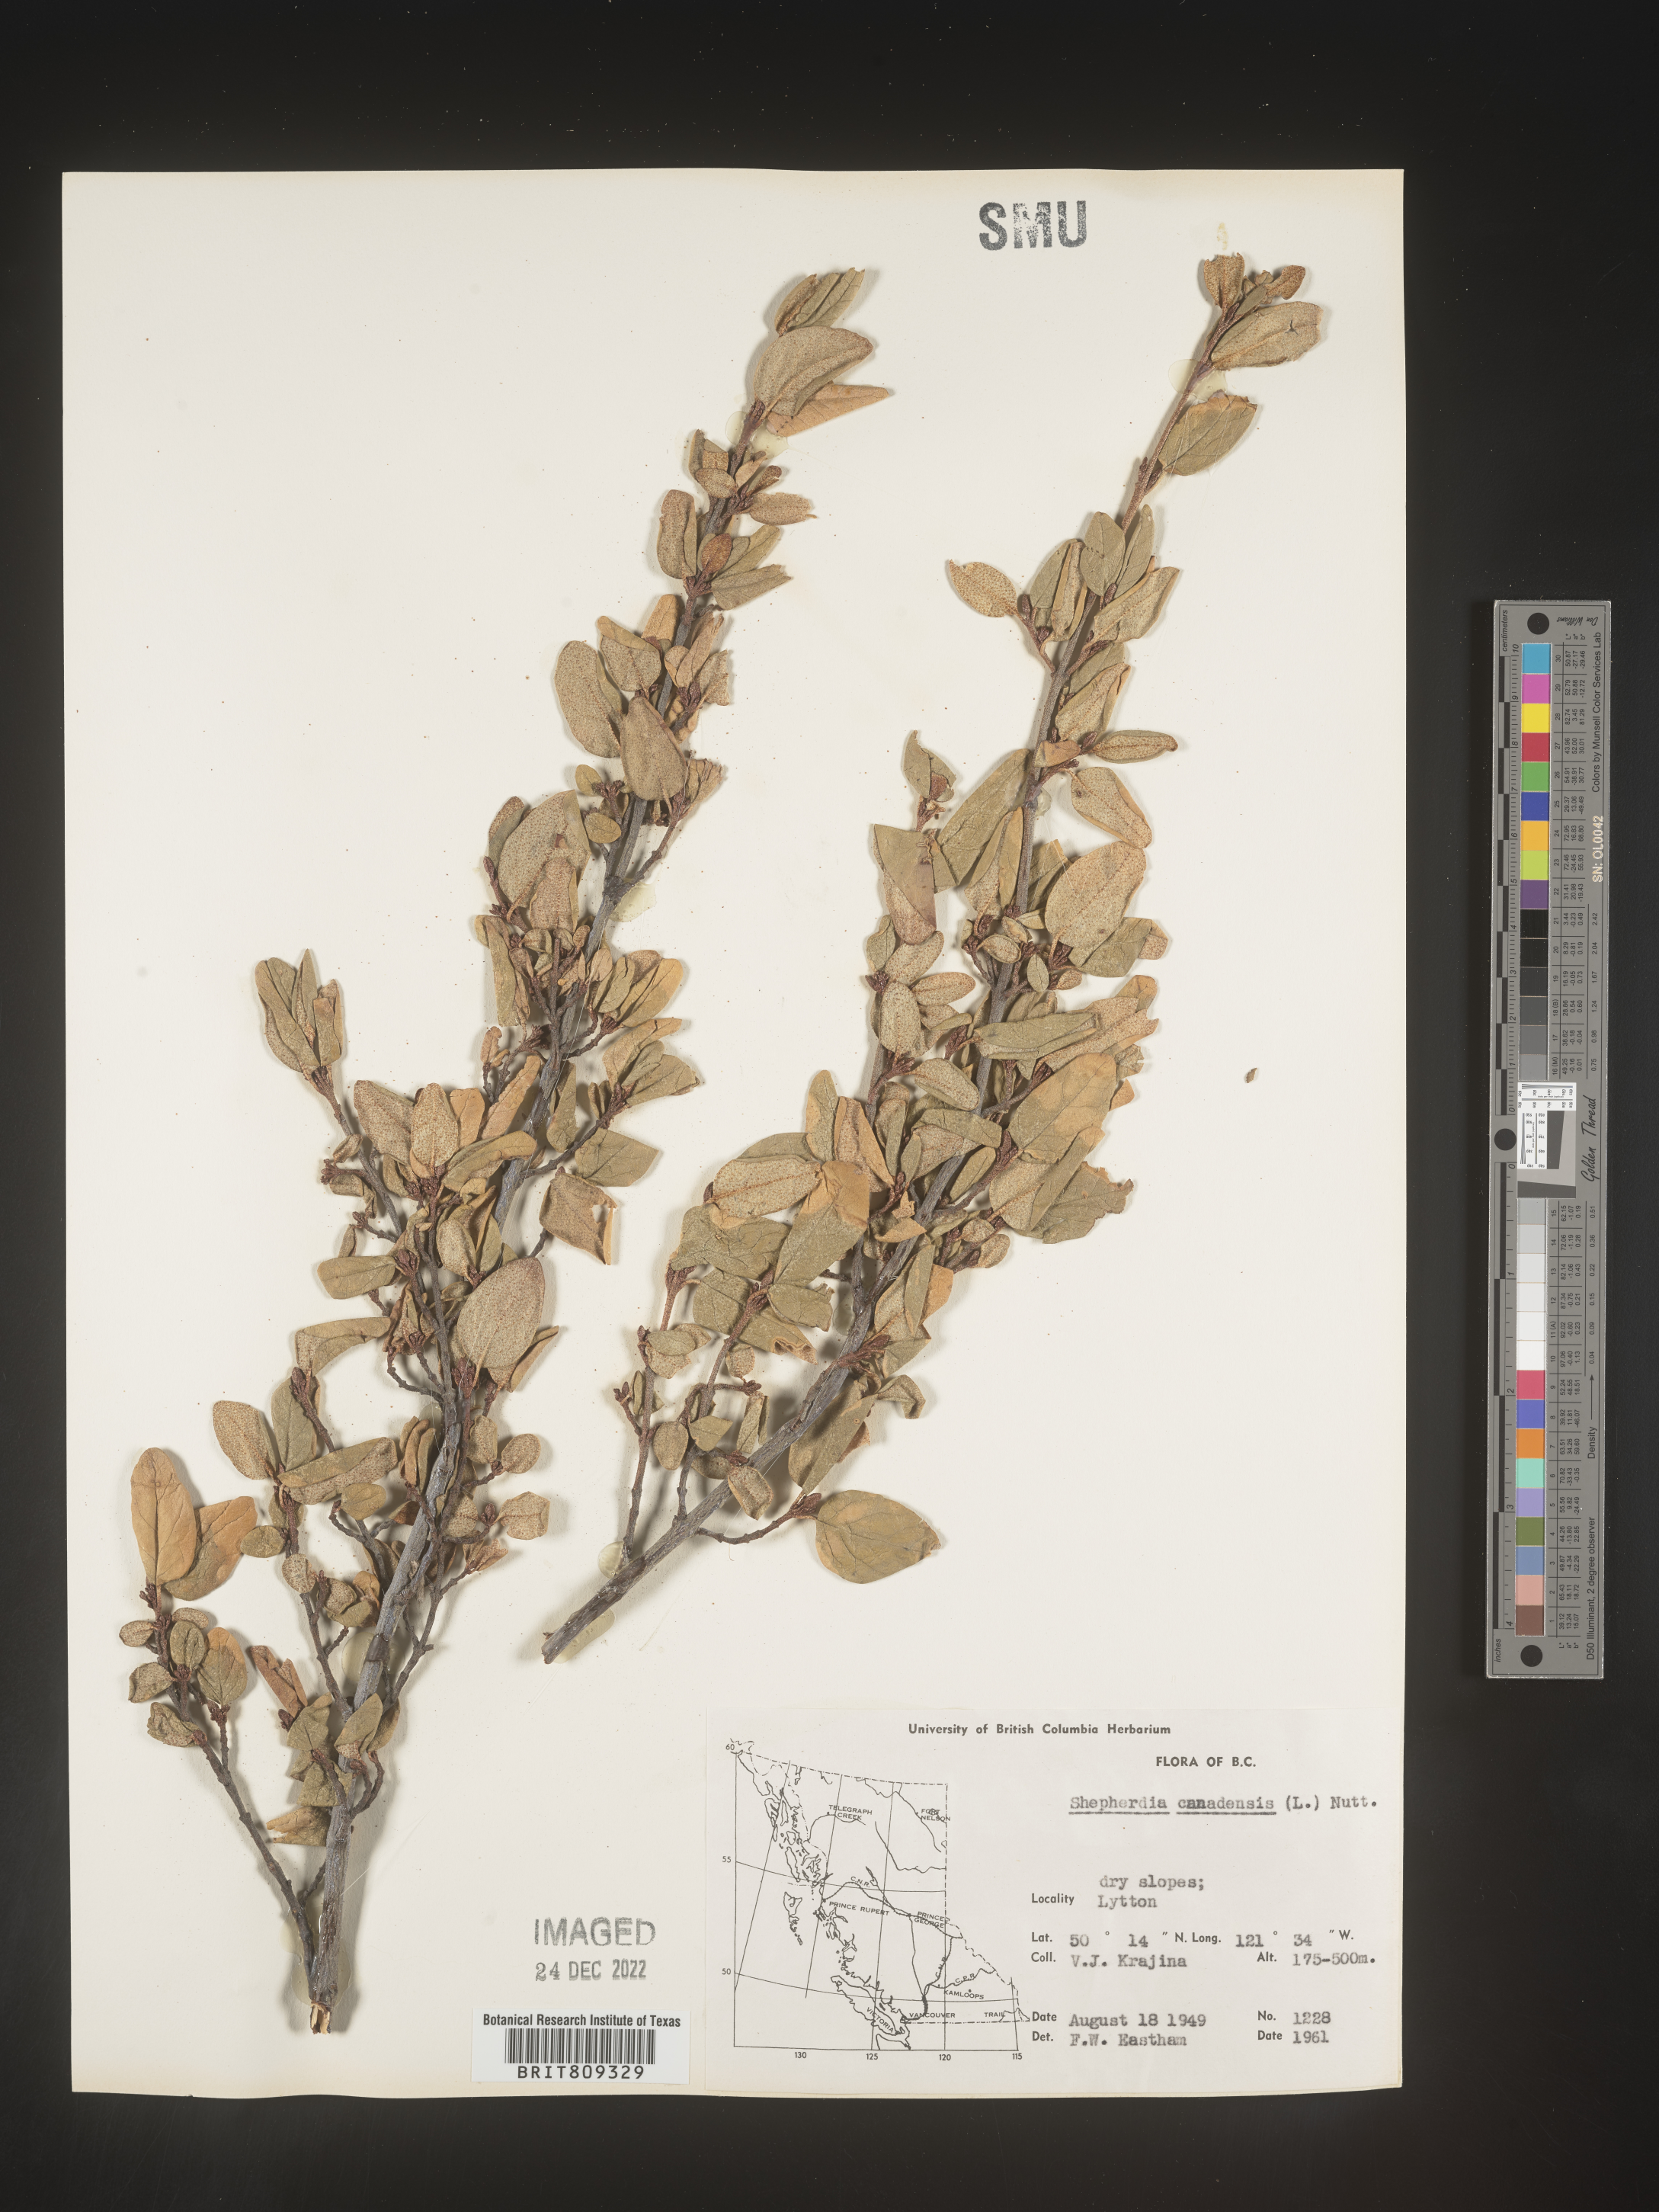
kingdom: Plantae
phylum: Tracheophyta
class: Magnoliopsida
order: Rosales
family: Elaeagnaceae
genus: Shepherdia
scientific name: Shepherdia canadensis
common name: Soapberry
